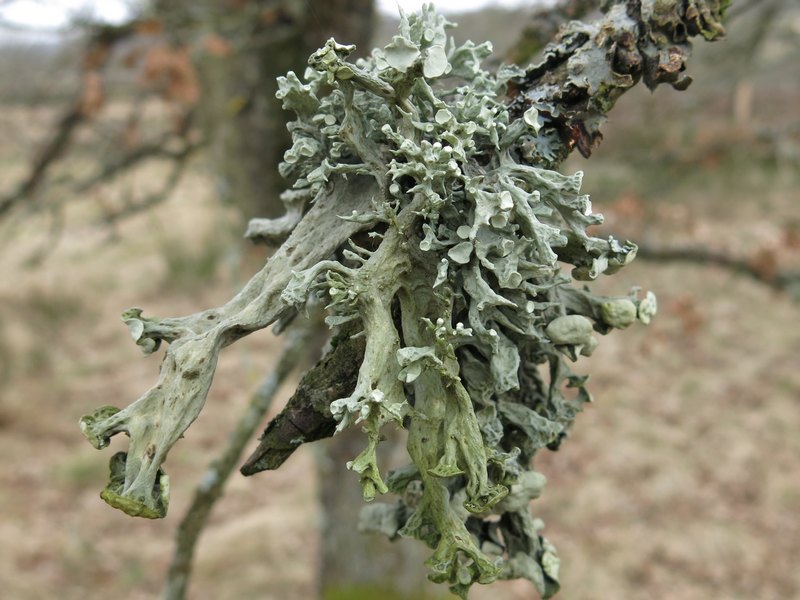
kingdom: Fungi
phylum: Ascomycota
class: Lecanoromycetes
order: Lecanorales
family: Ramalinaceae
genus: Ramalina
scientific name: Ramalina fraxinea
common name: stor grenlav
